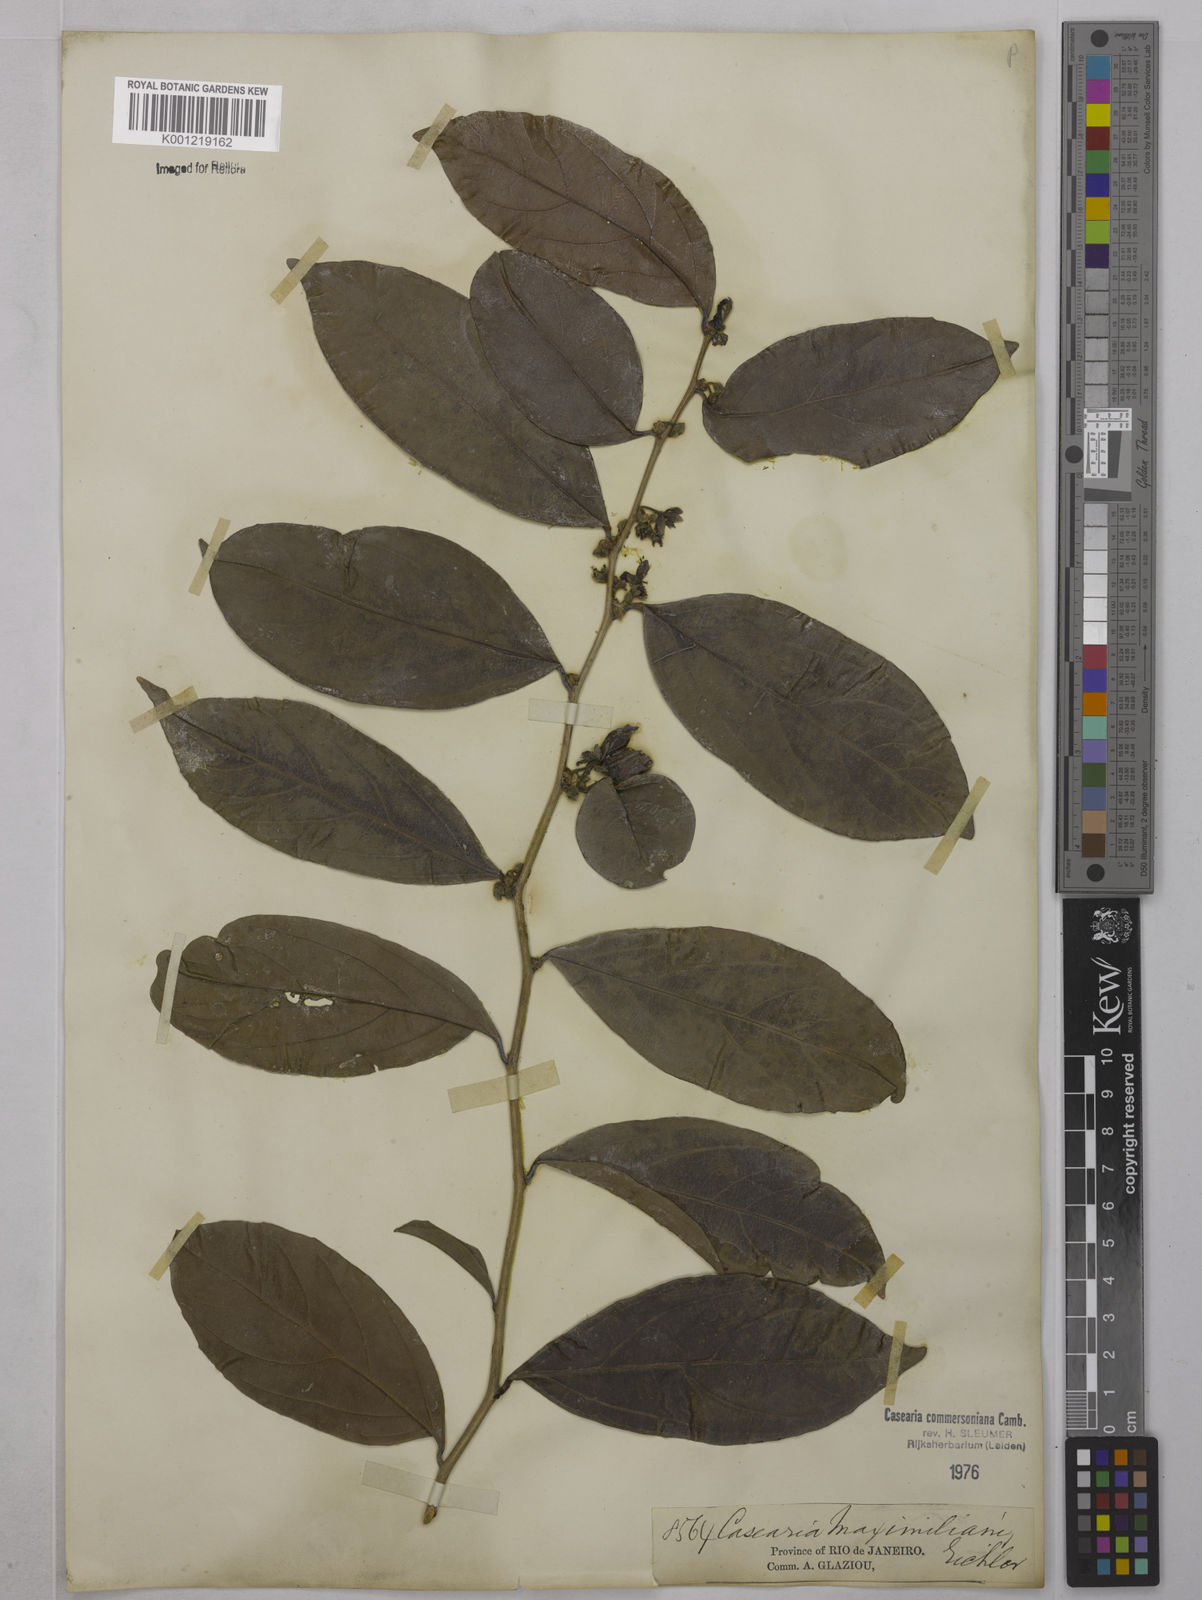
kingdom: Plantae
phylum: Tracheophyta
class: Magnoliopsida
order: Malpighiales
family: Salicaceae
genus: Piparea
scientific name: Piparea dentata
